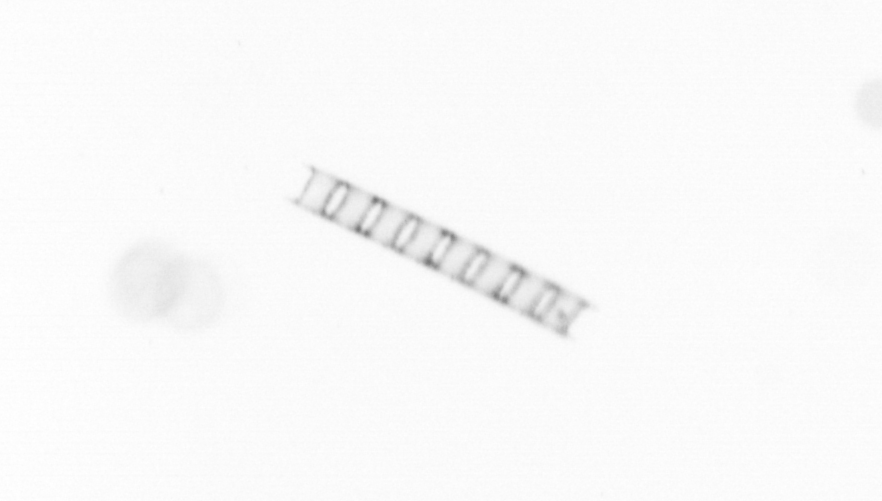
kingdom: Chromista
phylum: Ochrophyta
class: Bacillariophyceae
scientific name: Bacillariophyceae
